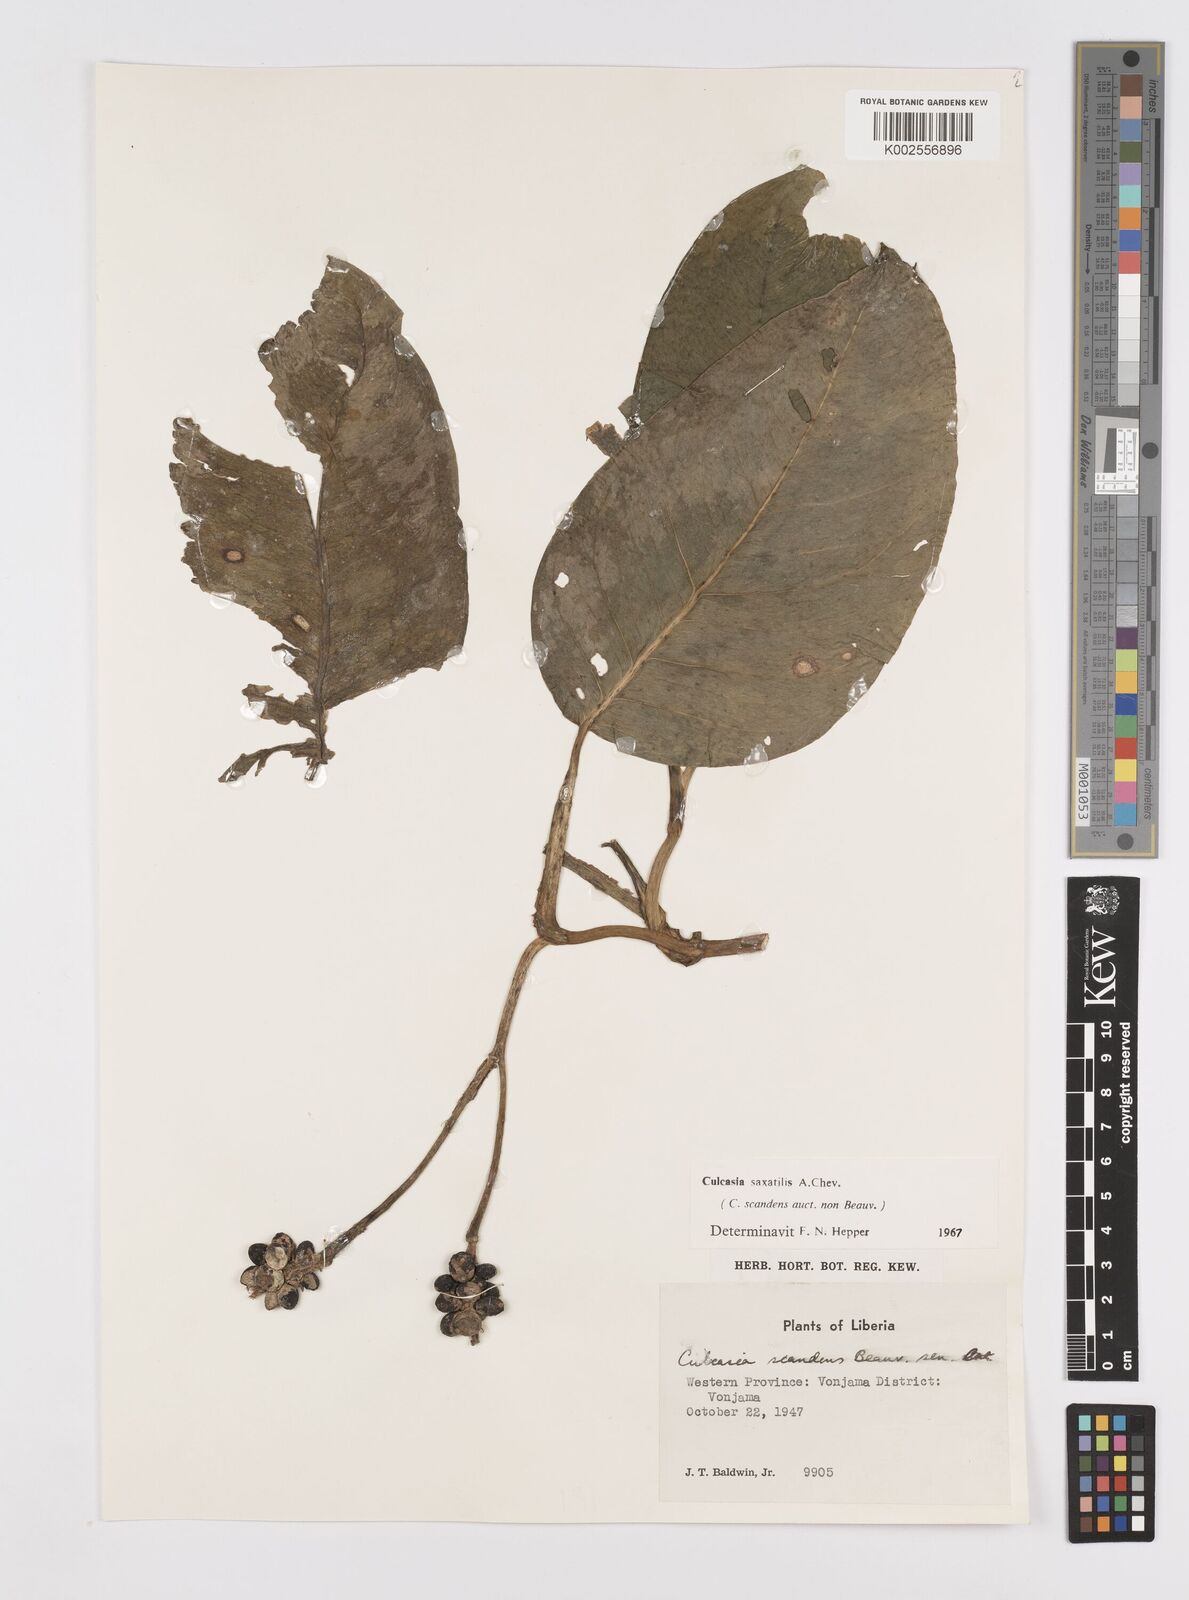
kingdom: Plantae
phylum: Tracheophyta
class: Liliopsida
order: Alismatales
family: Araceae
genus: Culcasia
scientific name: Culcasia scandens
